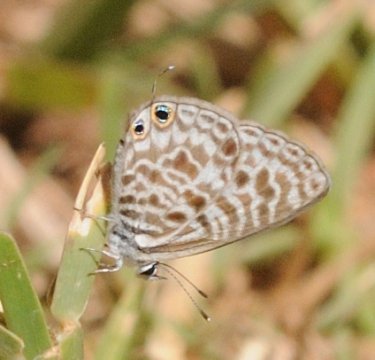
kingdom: Animalia
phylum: Arthropoda
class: Insecta
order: Lepidoptera
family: Lycaenidae
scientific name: Lycaenidae
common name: Gossamerwings
